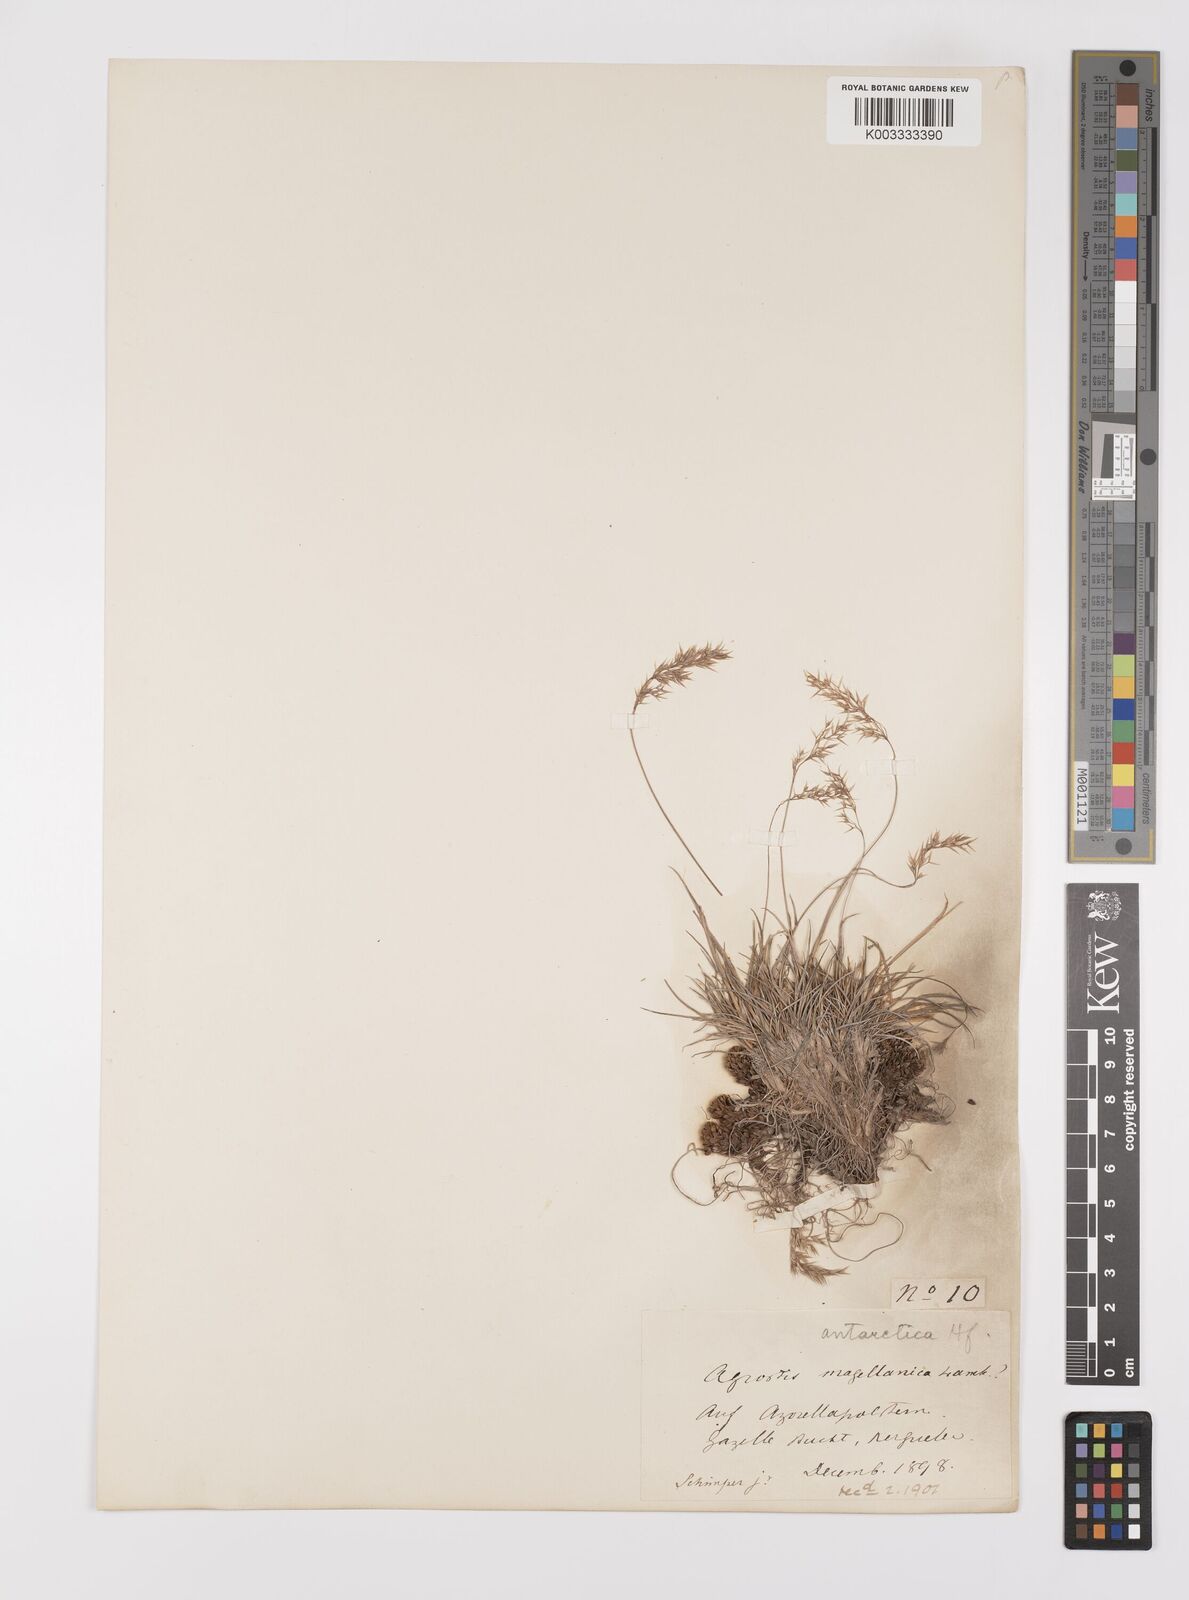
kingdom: Plantae
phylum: Tracheophyta
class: Liliopsida
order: Poales
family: Poaceae
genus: Polypogon
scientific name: Polypogon magellanicus
